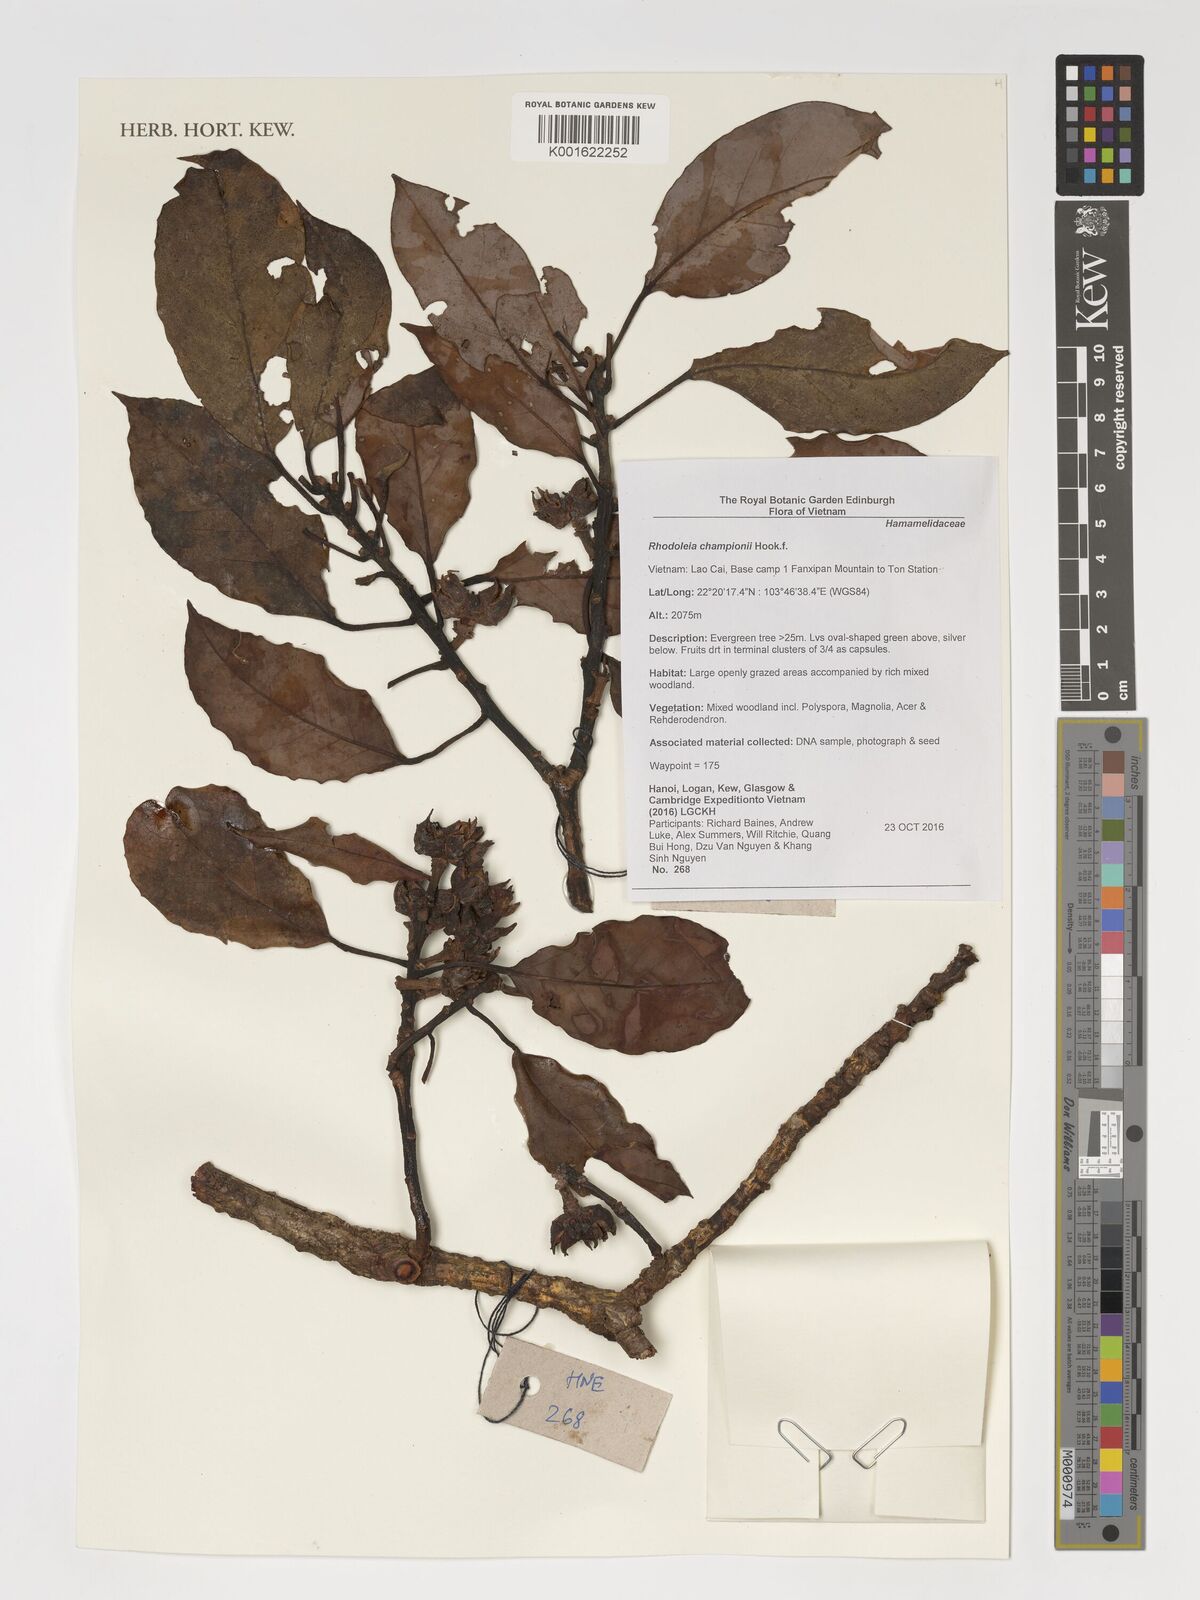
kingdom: Plantae
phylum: Tracheophyta
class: Magnoliopsida
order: Saxifragales
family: Hamamelidaceae
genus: Rhodoleia
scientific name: Rhodoleia championii
